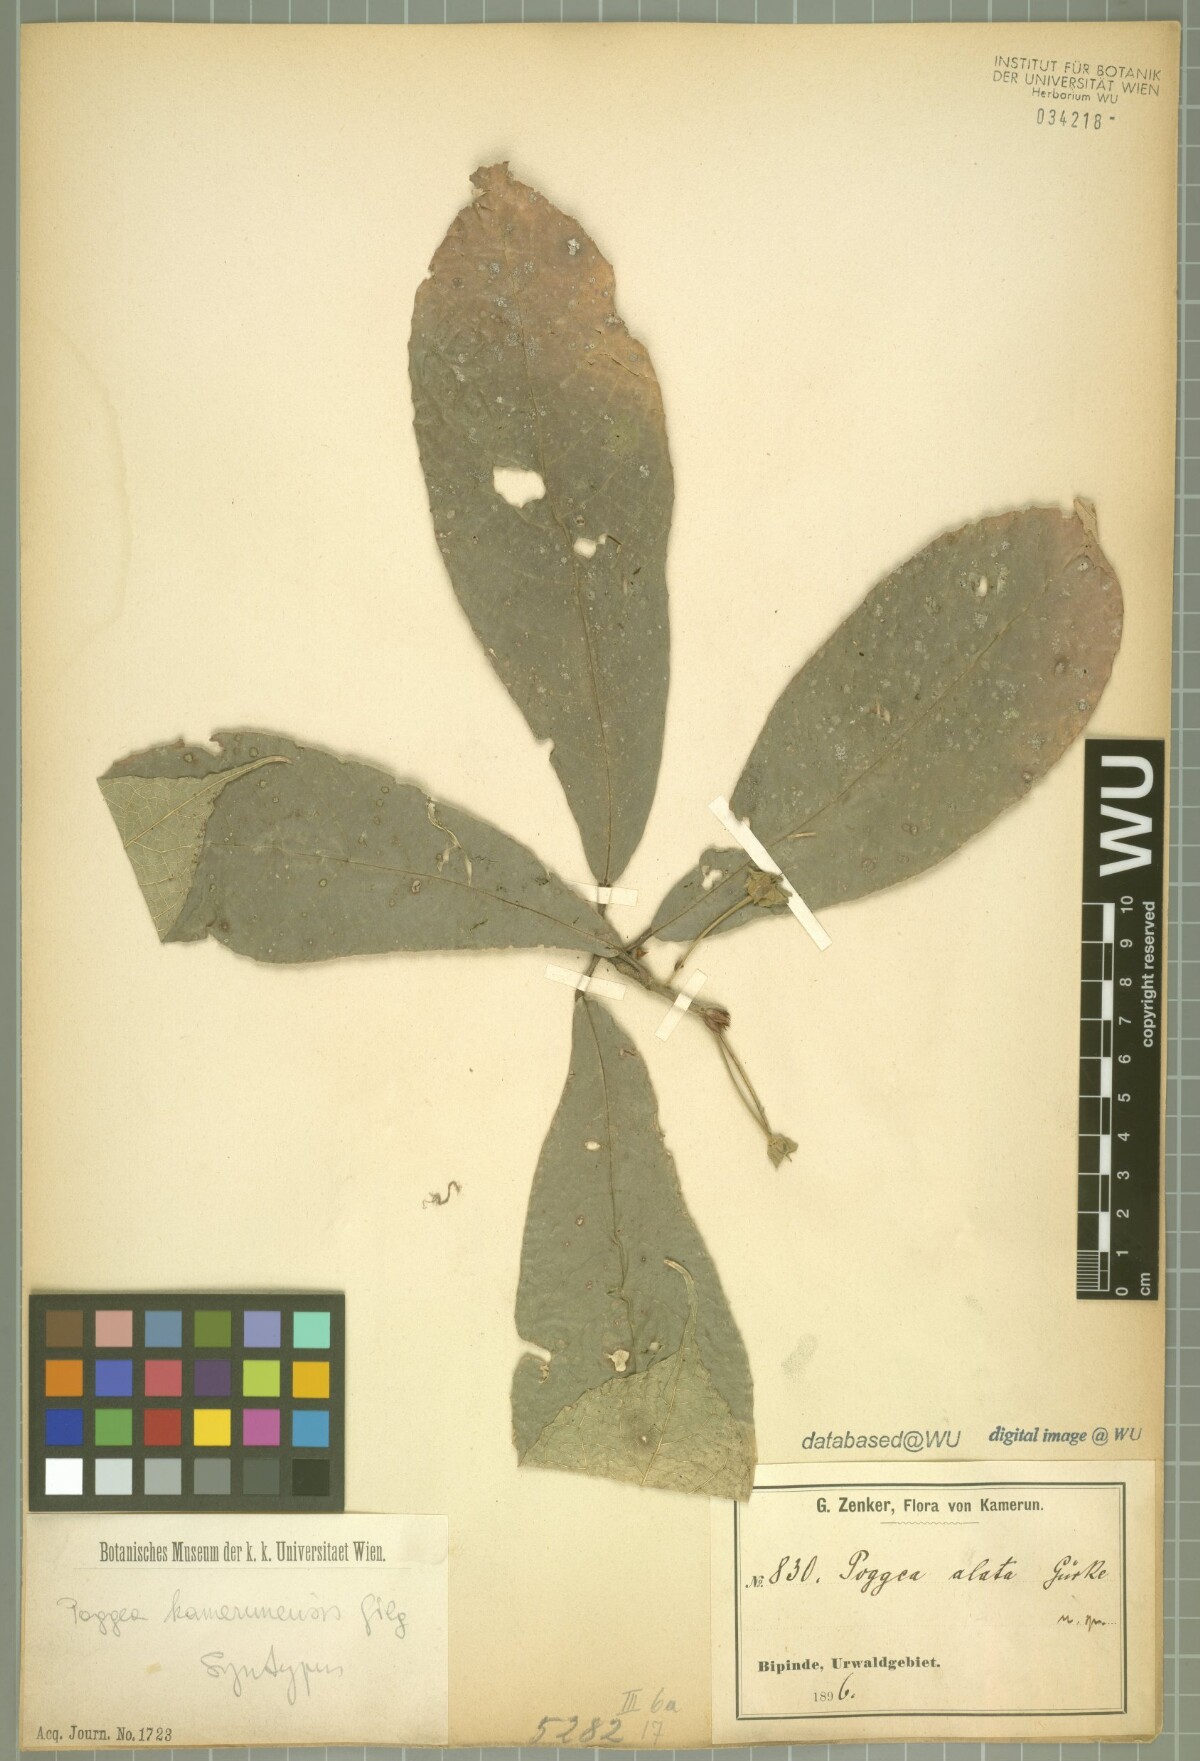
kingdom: Plantae
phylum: Tracheophyta
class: Magnoliopsida
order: Malpighiales
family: Achariaceae
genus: Poggea
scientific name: Poggea alata
